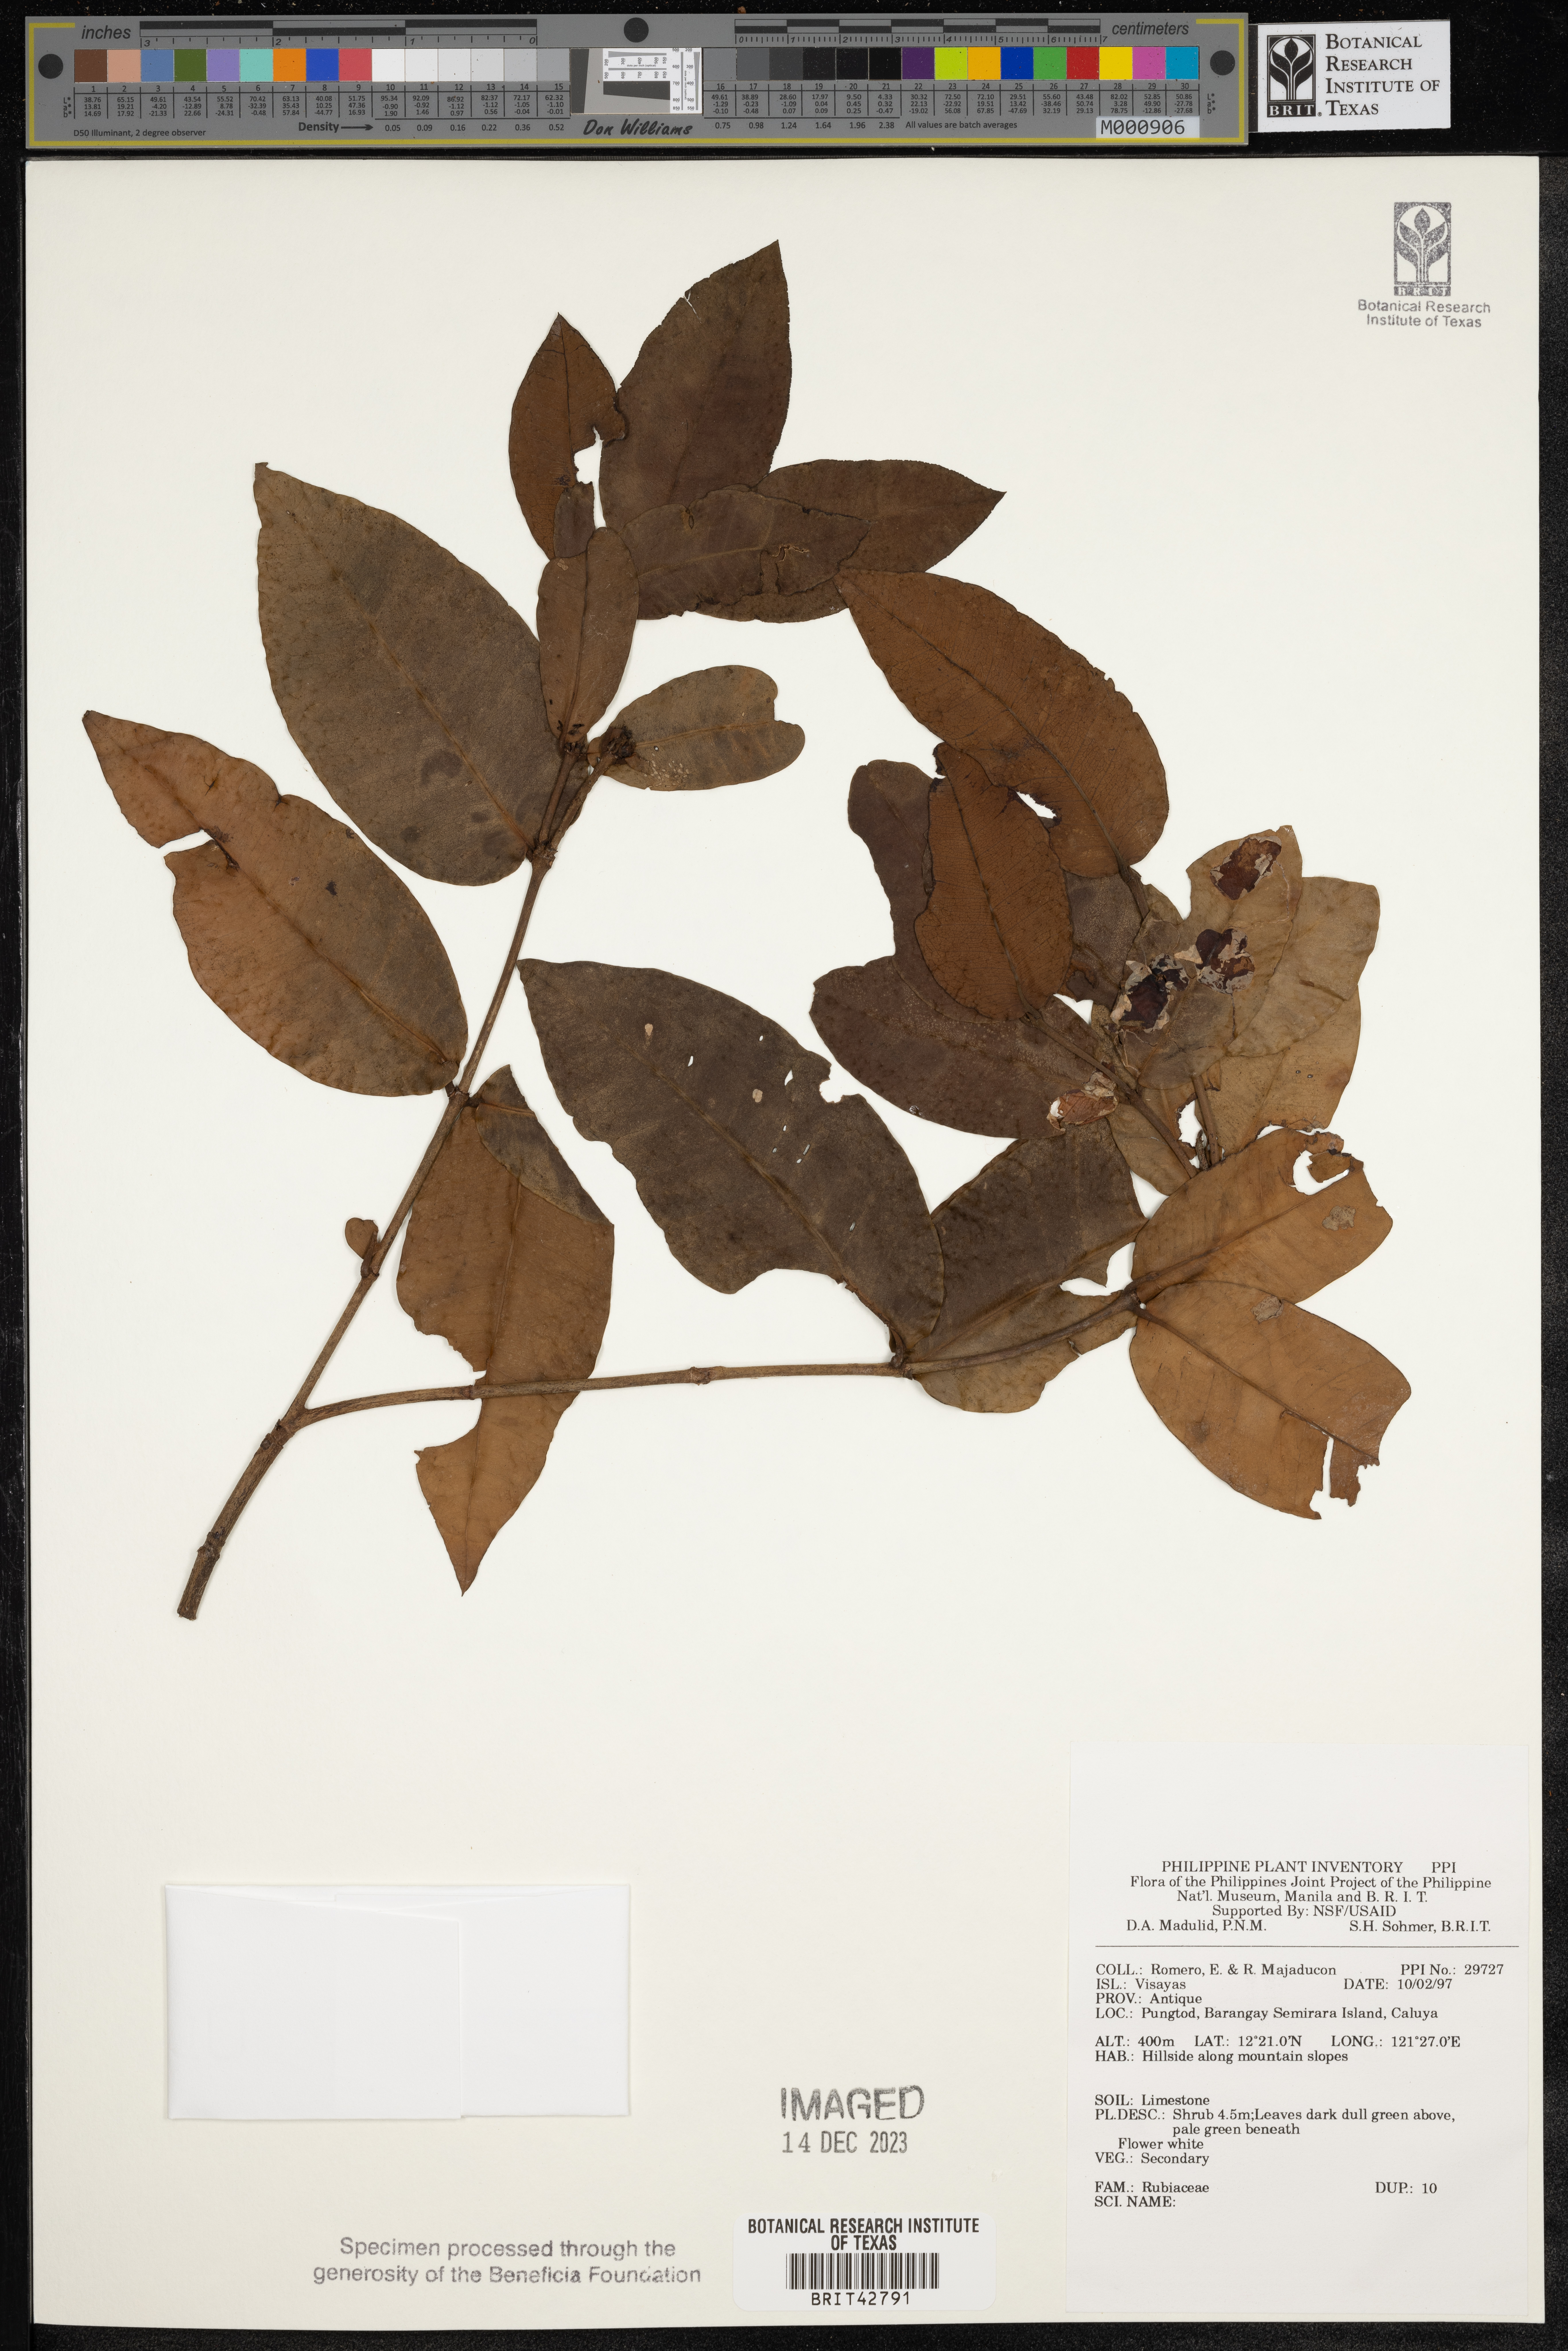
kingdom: Plantae
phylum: Tracheophyta
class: Magnoliopsida
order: Gentianales
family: Rubiaceae
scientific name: Rubiaceae
